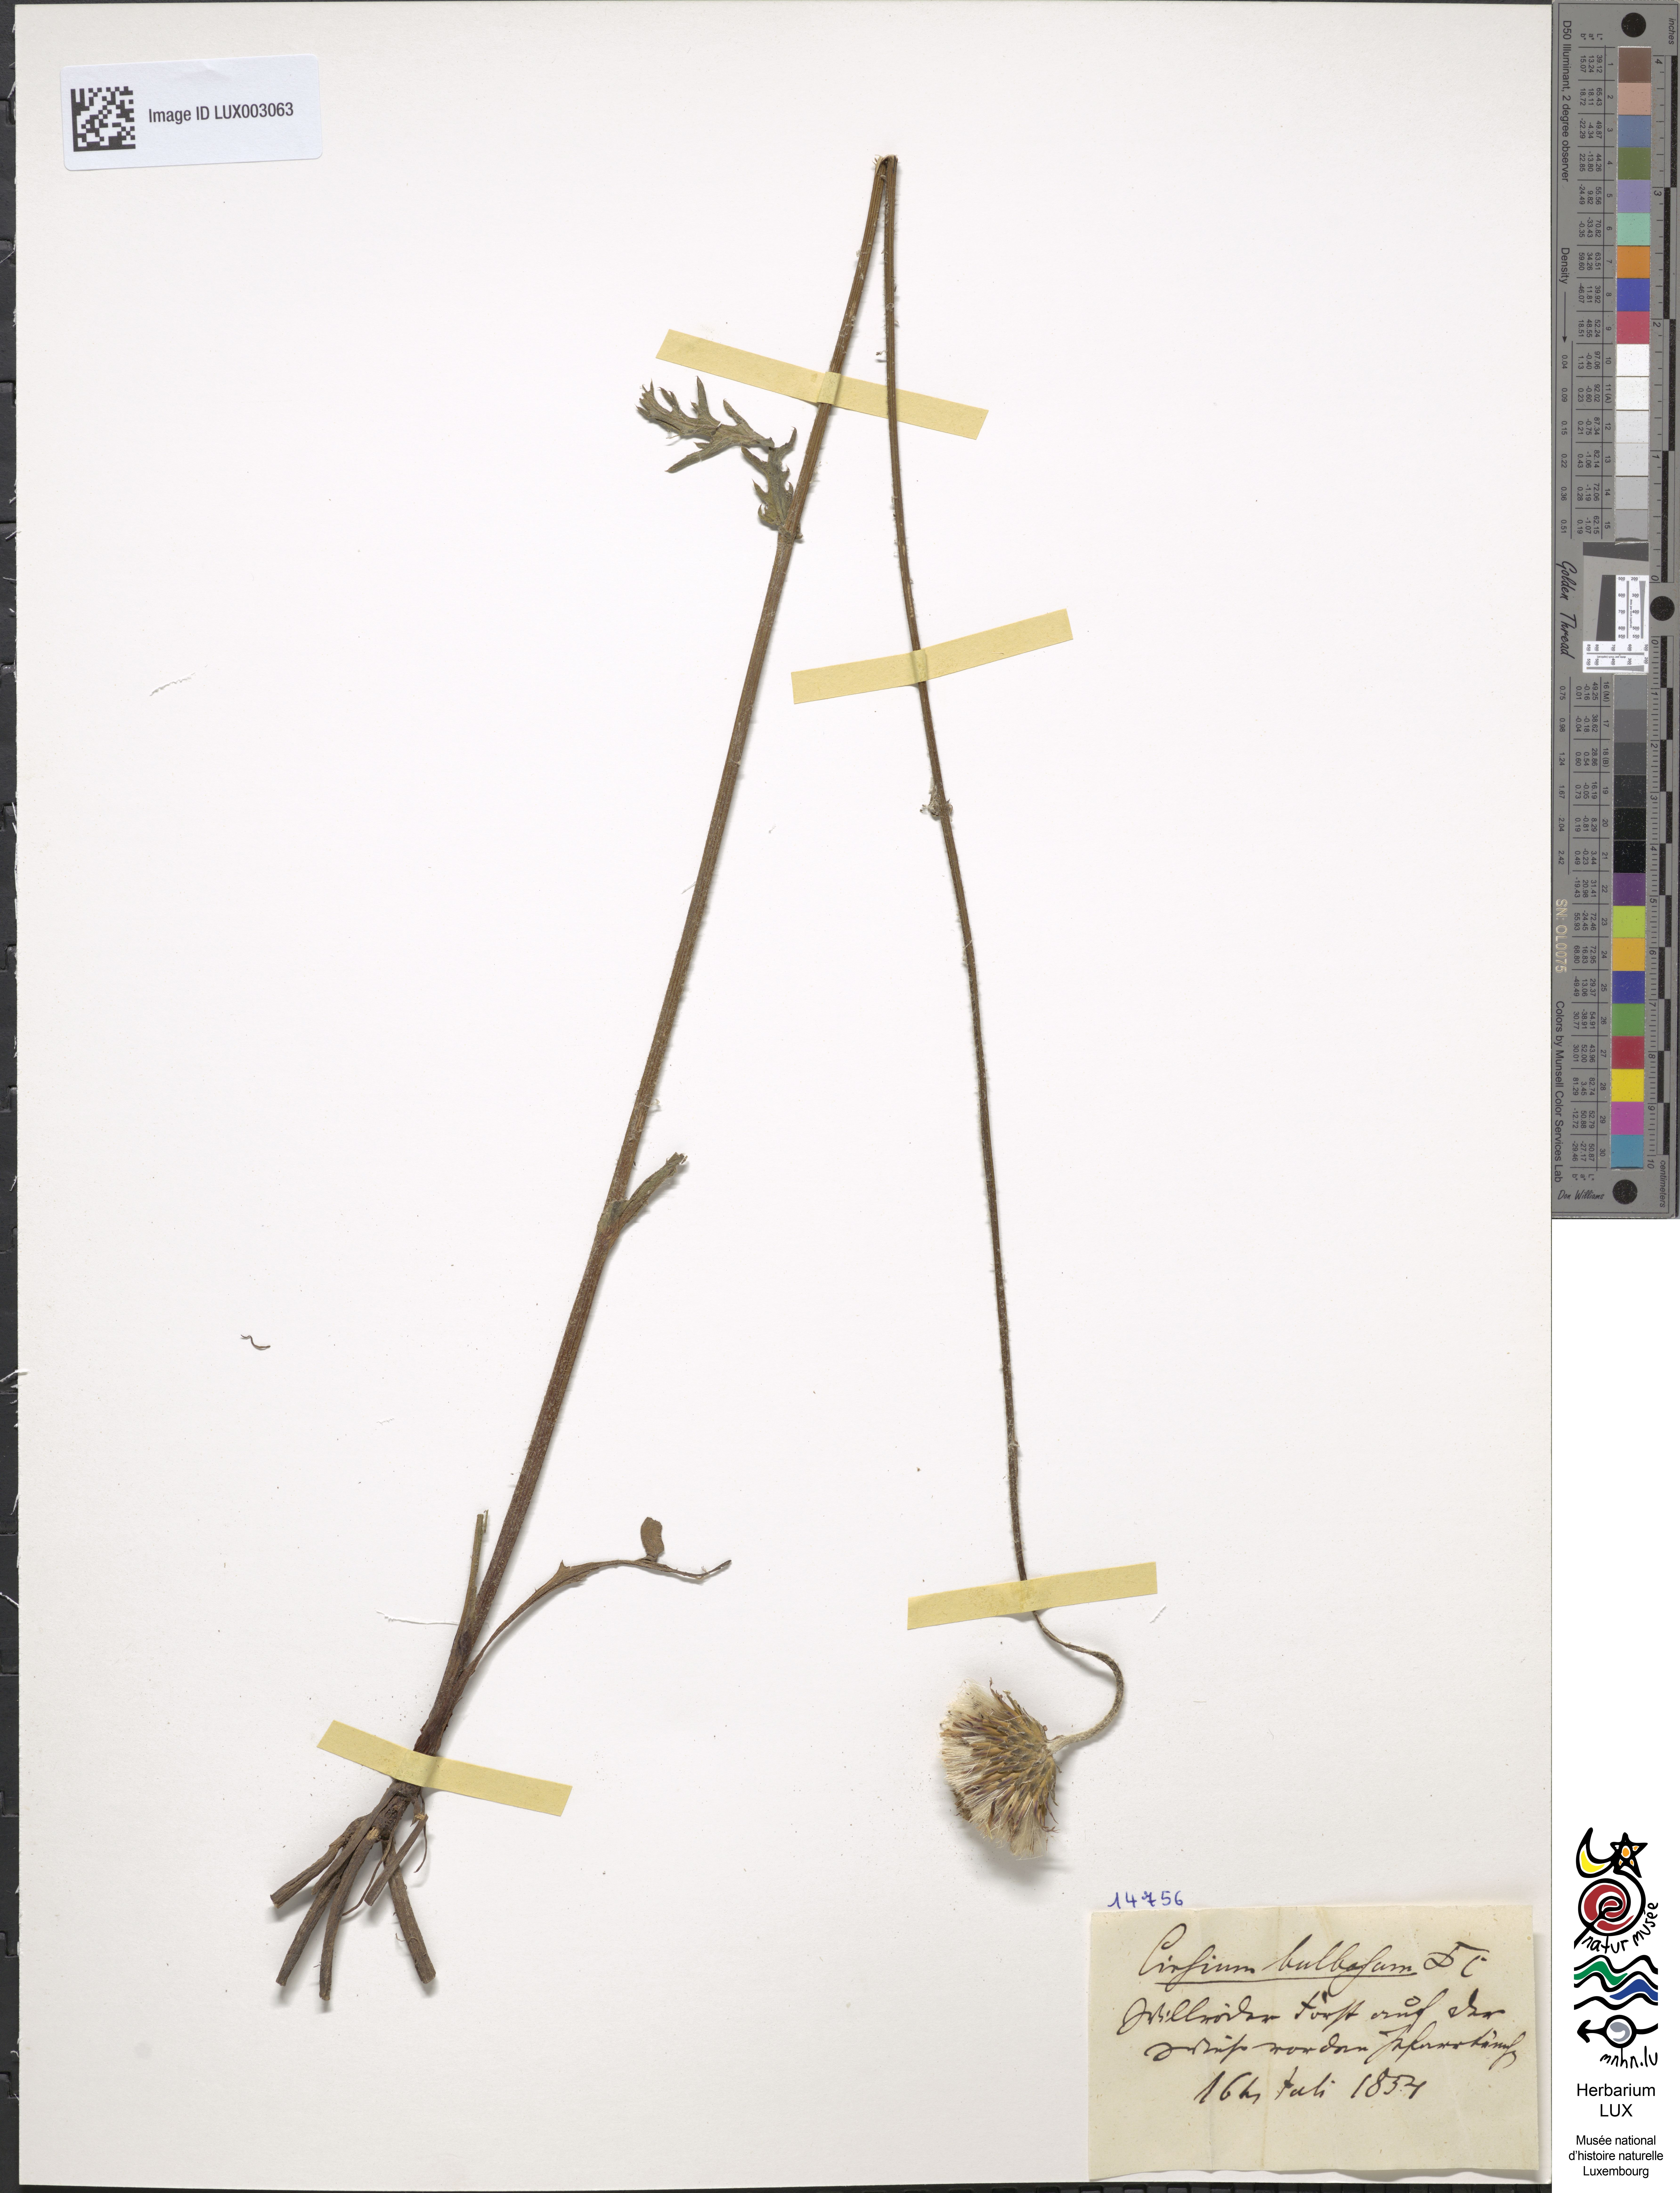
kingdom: Plantae
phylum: Tracheophyta
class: Magnoliopsida
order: Asterales
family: Asteraceae
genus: Cirsium
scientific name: Cirsium tuberosum
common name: Tuberous thistle
